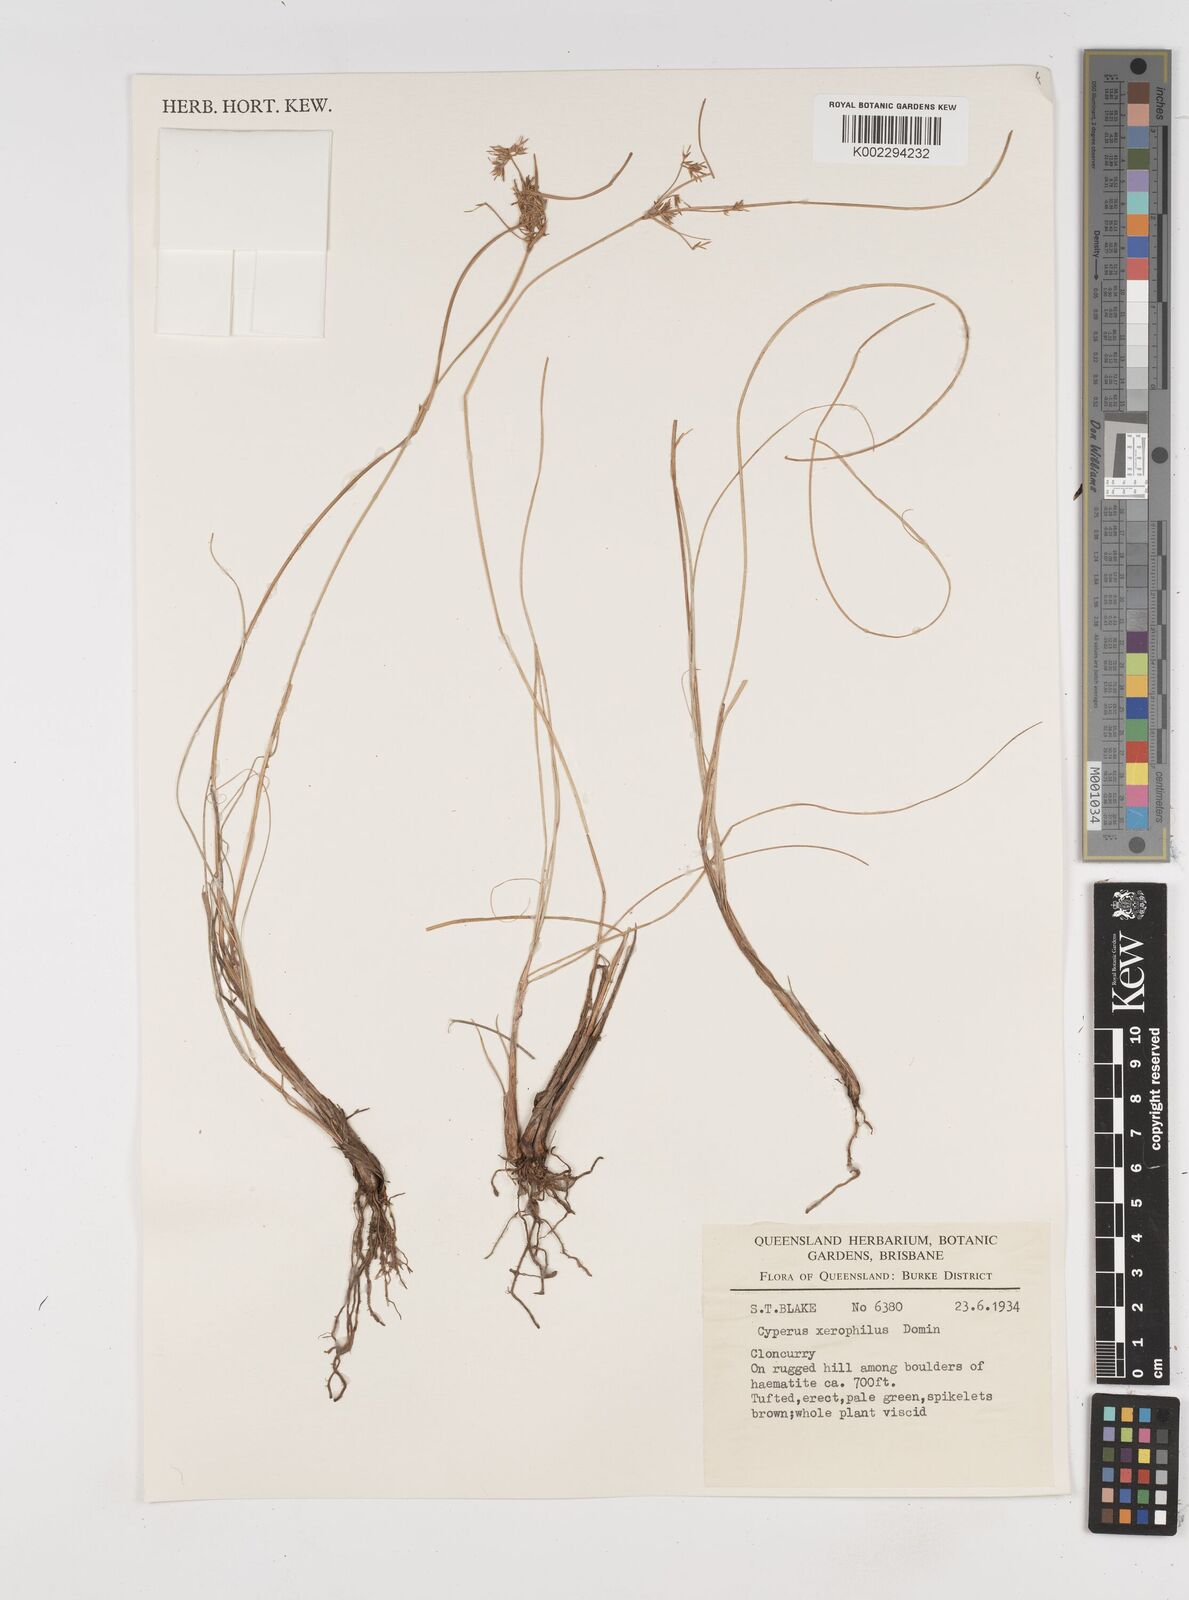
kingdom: Plantae
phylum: Tracheophyta
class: Liliopsida
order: Poales
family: Cyperaceae
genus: Cyperus
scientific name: Cyperus cunninghamii
